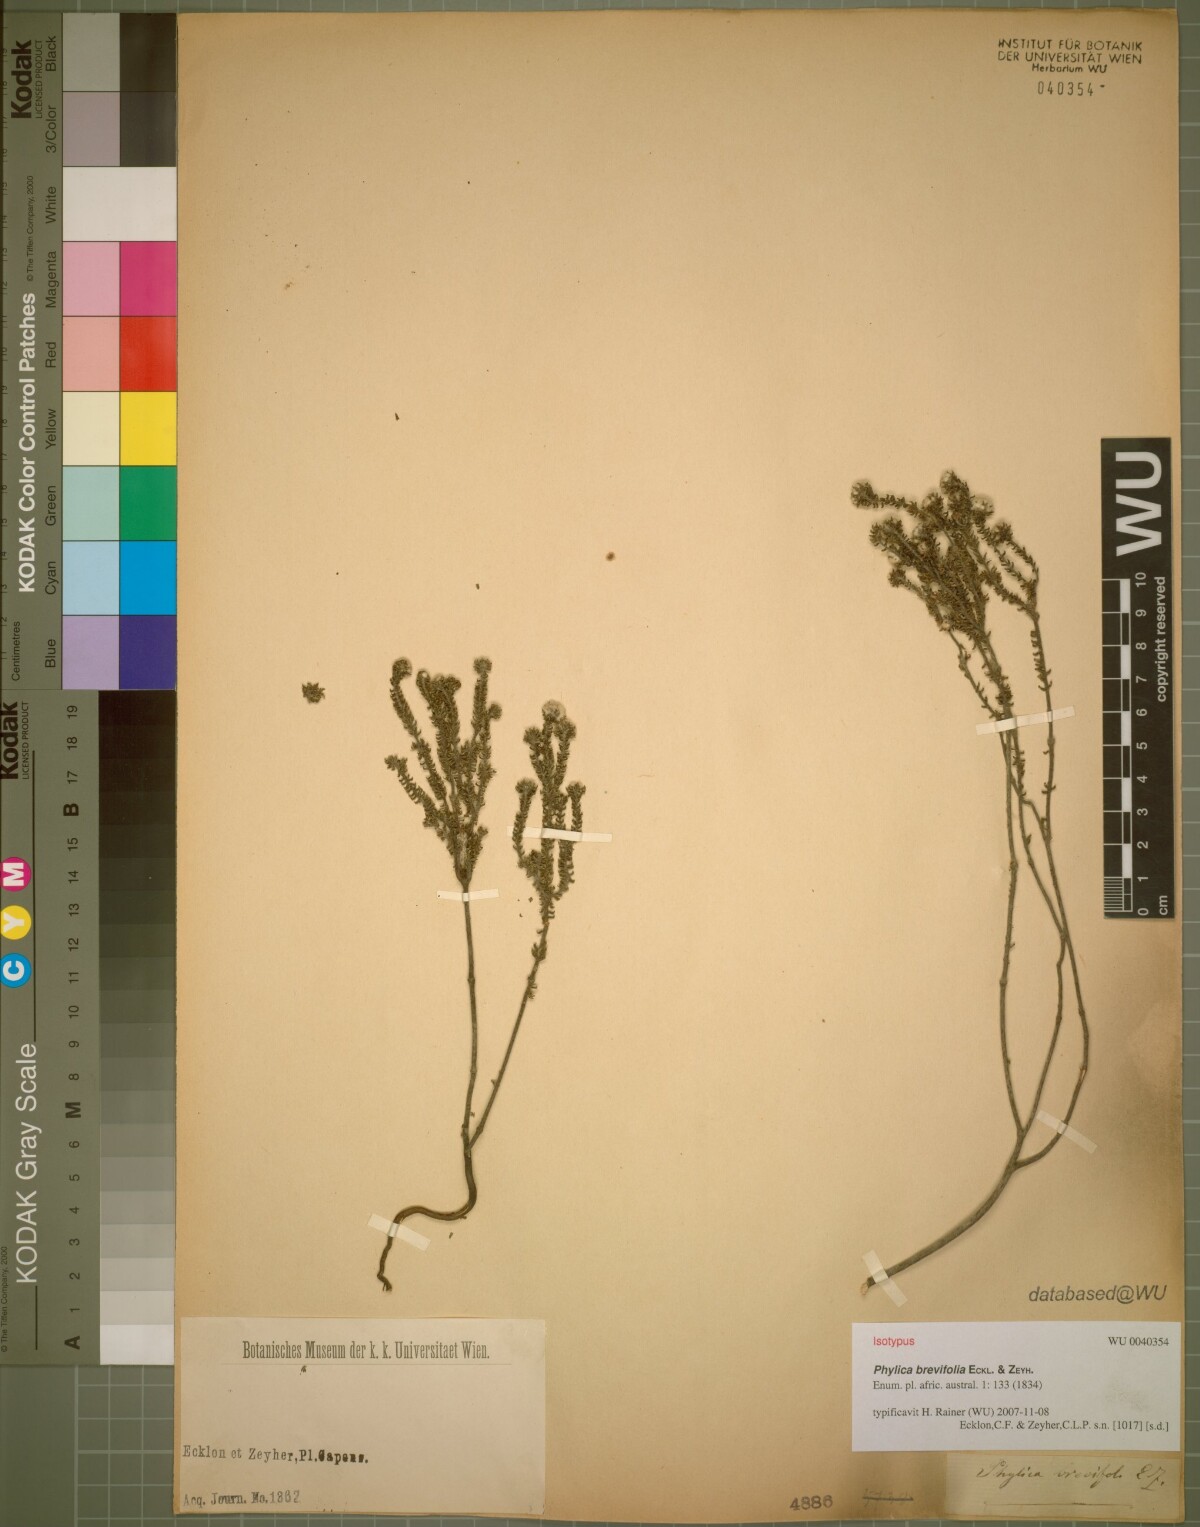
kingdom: Plantae
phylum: Tracheophyta
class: Magnoliopsida
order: Rosales
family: Rhamnaceae
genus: Phylica
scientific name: Phylica brevifolia
